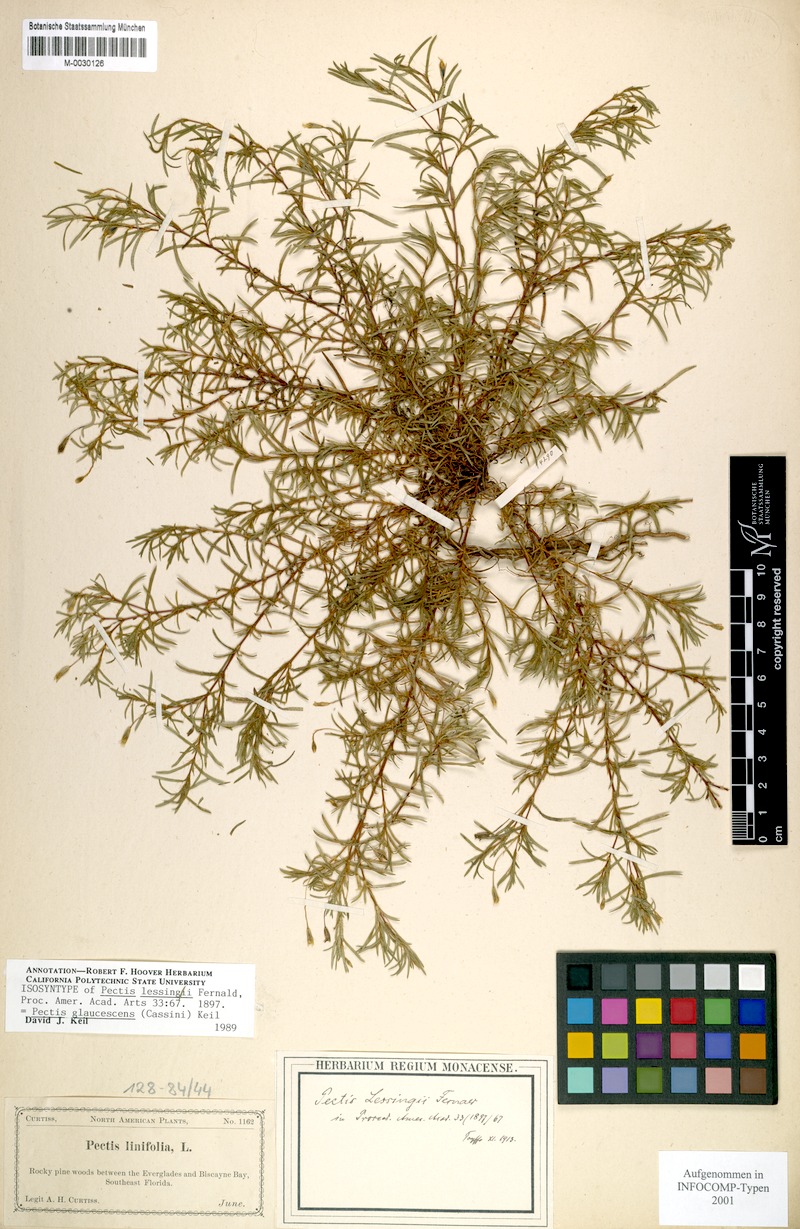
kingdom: Plantae
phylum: Tracheophyta
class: Magnoliopsida
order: Asterales
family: Asteraceae
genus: Pectis
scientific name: Pectis glaucescens
